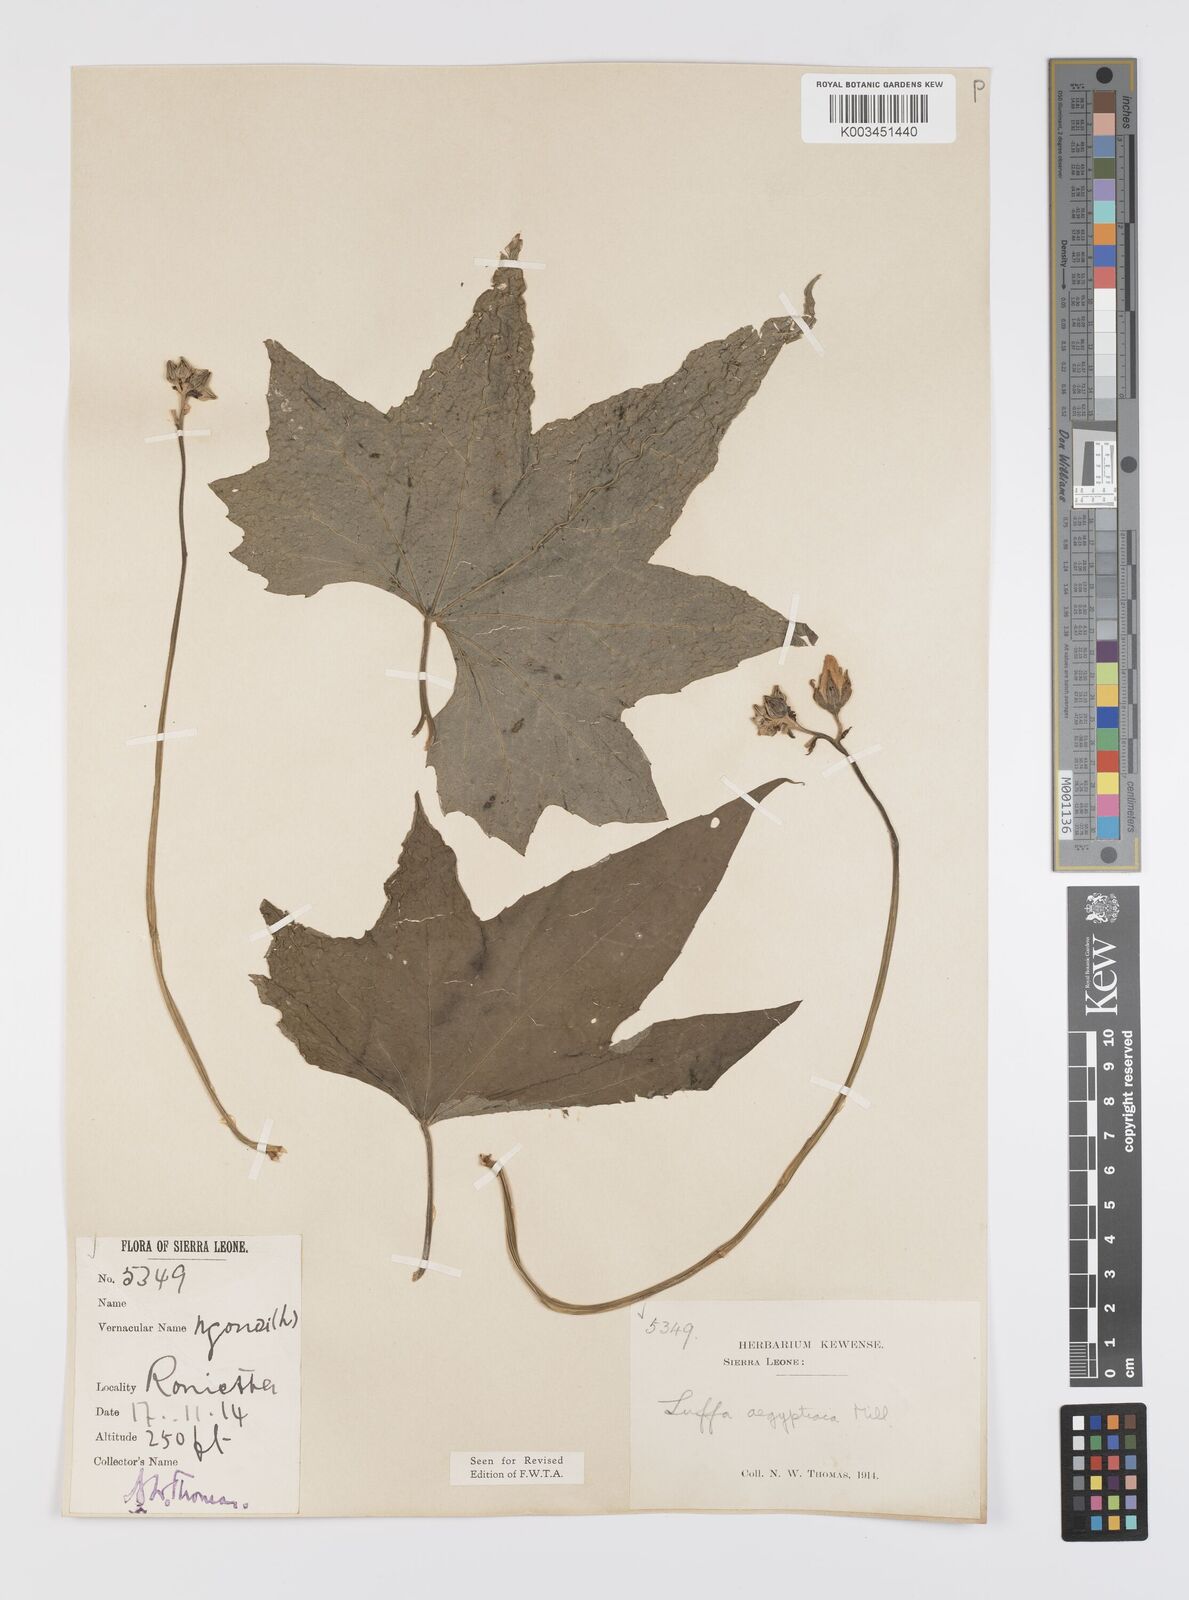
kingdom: Plantae
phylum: Tracheophyta
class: Magnoliopsida
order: Cucurbitales
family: Cucurbitaceae
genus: Luffa
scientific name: Luffa aegyptiaca
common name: Sponge gourd
